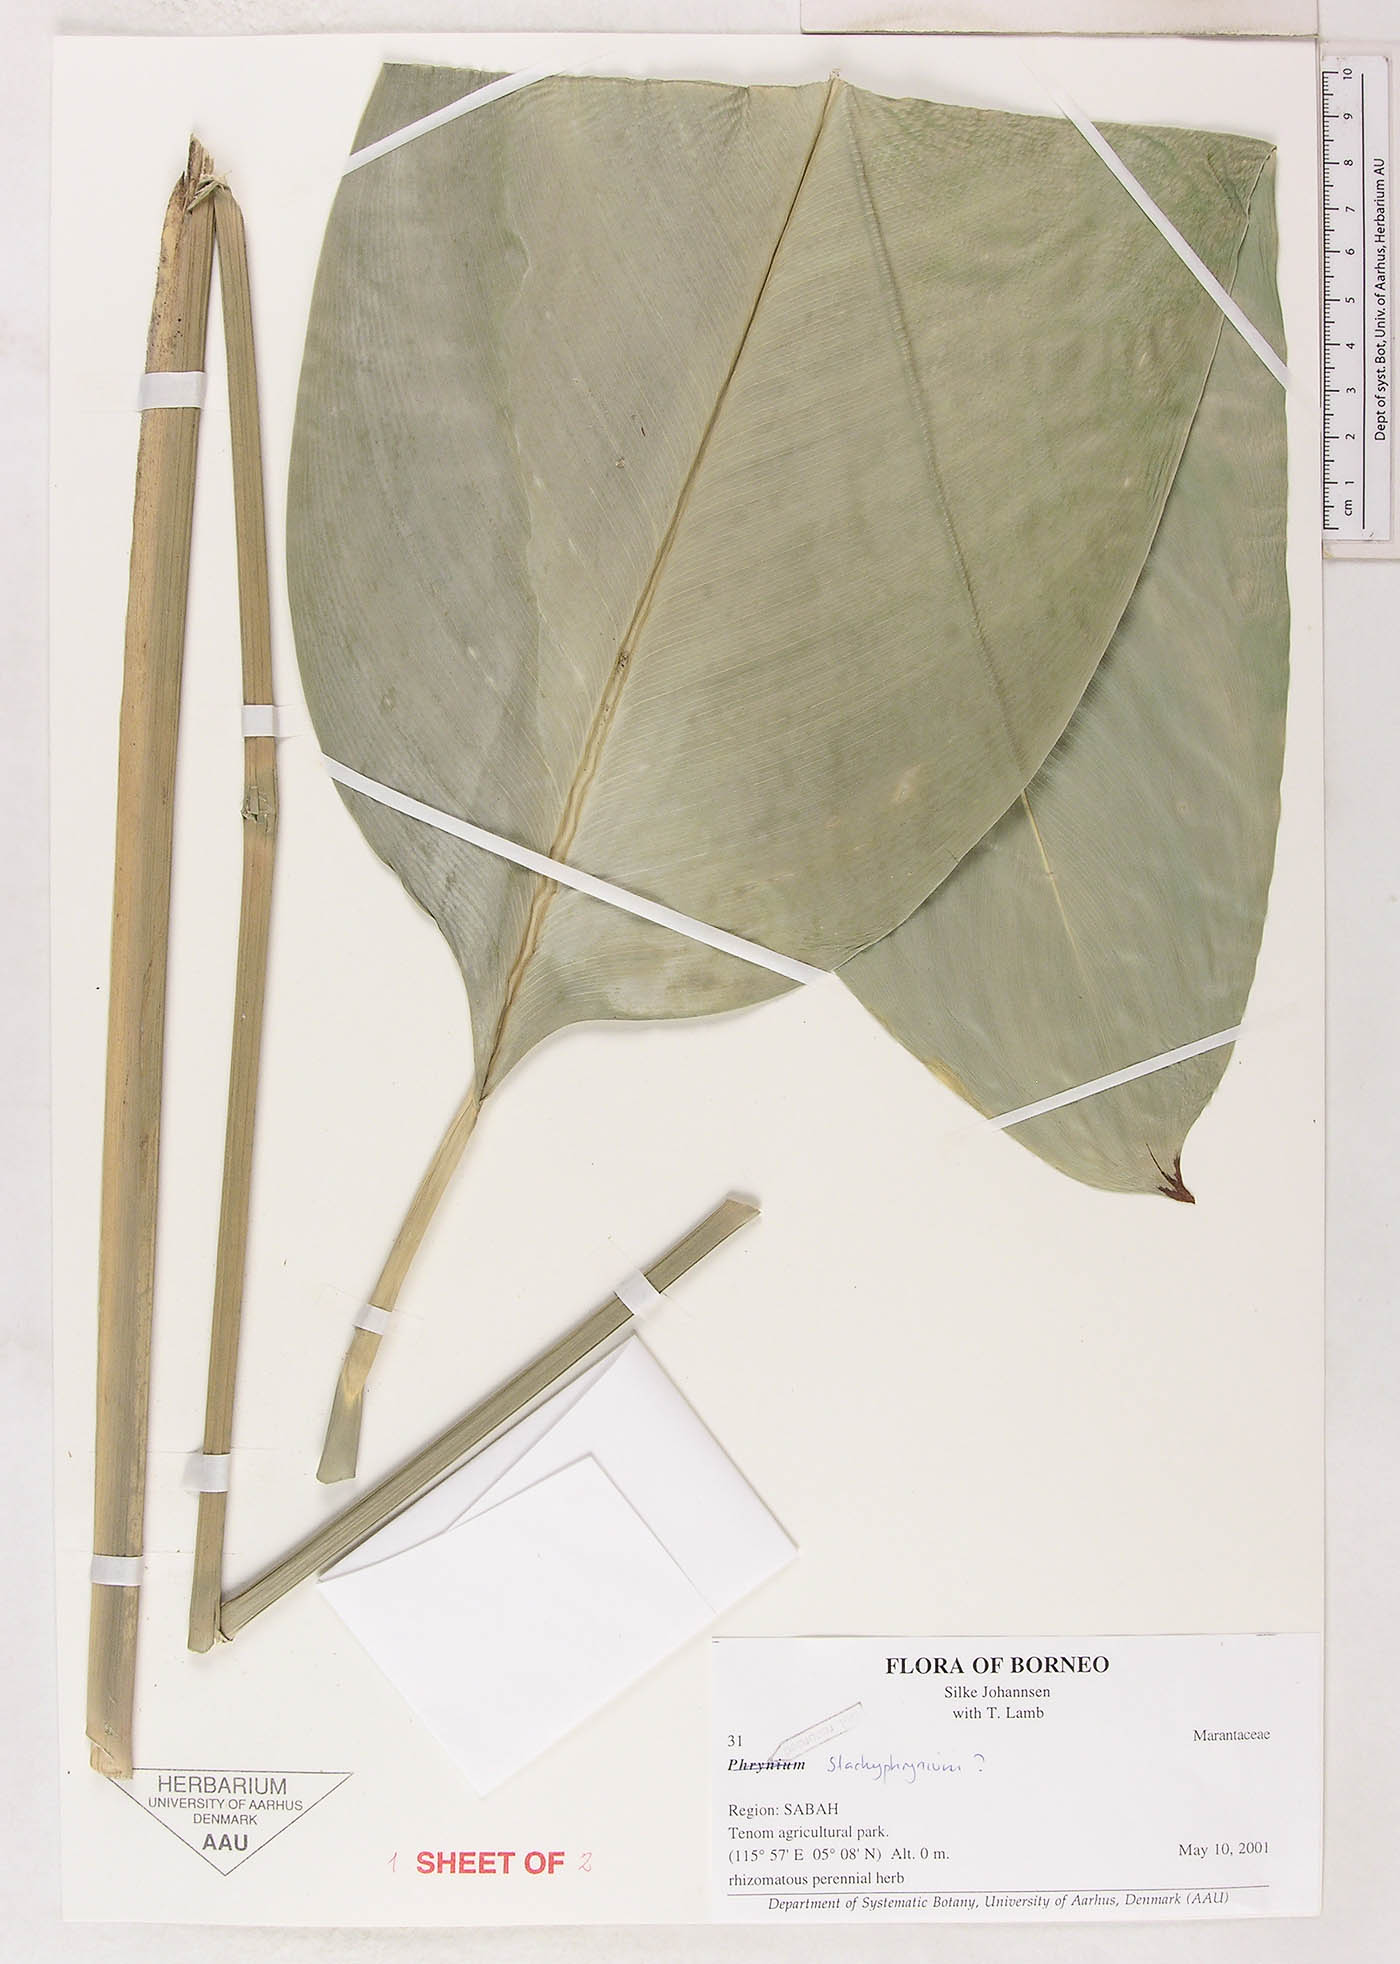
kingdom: Plantae
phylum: Tracheophyta
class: Liliopsida
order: Zingiberales
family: Marantaceae
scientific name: Marantaceae
